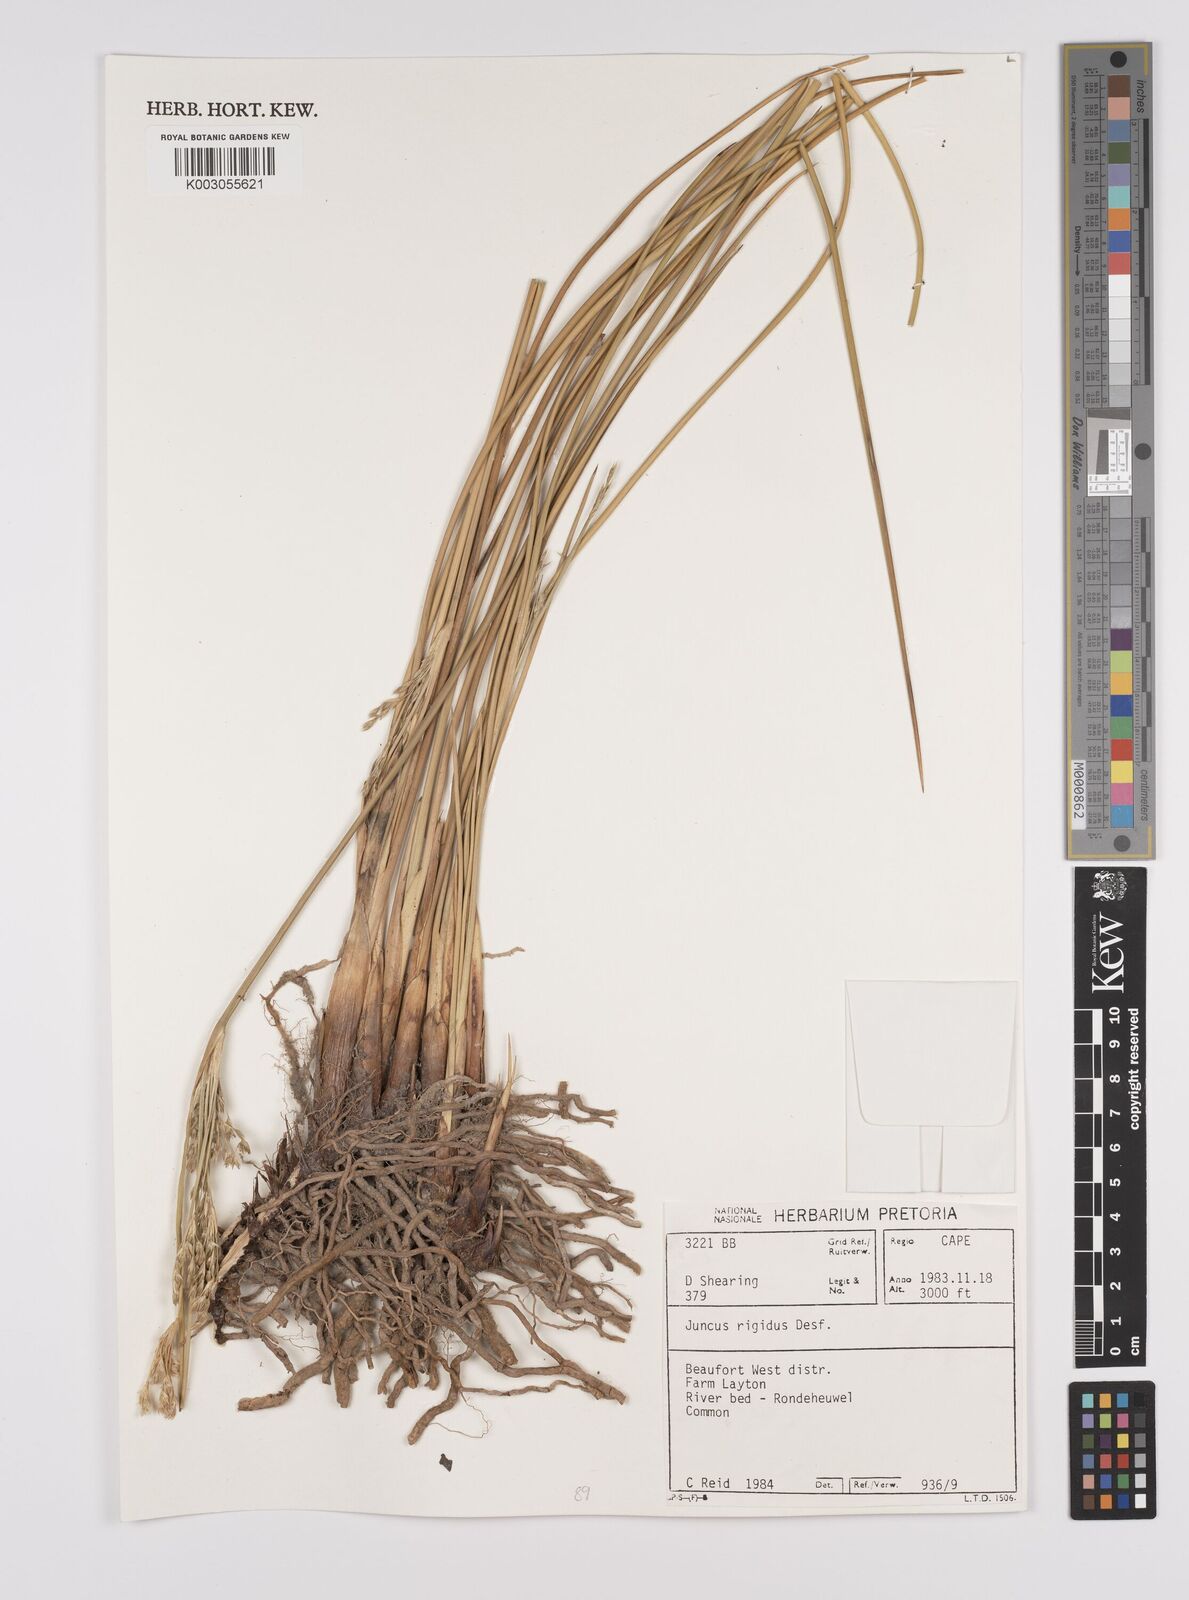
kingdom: Plantae
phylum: Tracheophyta
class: Liliopsida
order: Poales
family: Juncaceae
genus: Juncus
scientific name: Juncus rigidus
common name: Hard sea rush
